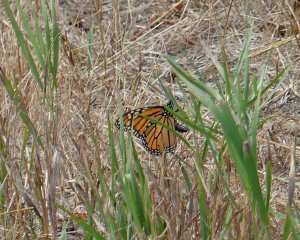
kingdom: Animalia
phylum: Arthropoda
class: Insecta
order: Lepidoptera
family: Nymphalidae
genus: Danaus
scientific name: Danaus plexippus
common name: Monarch
